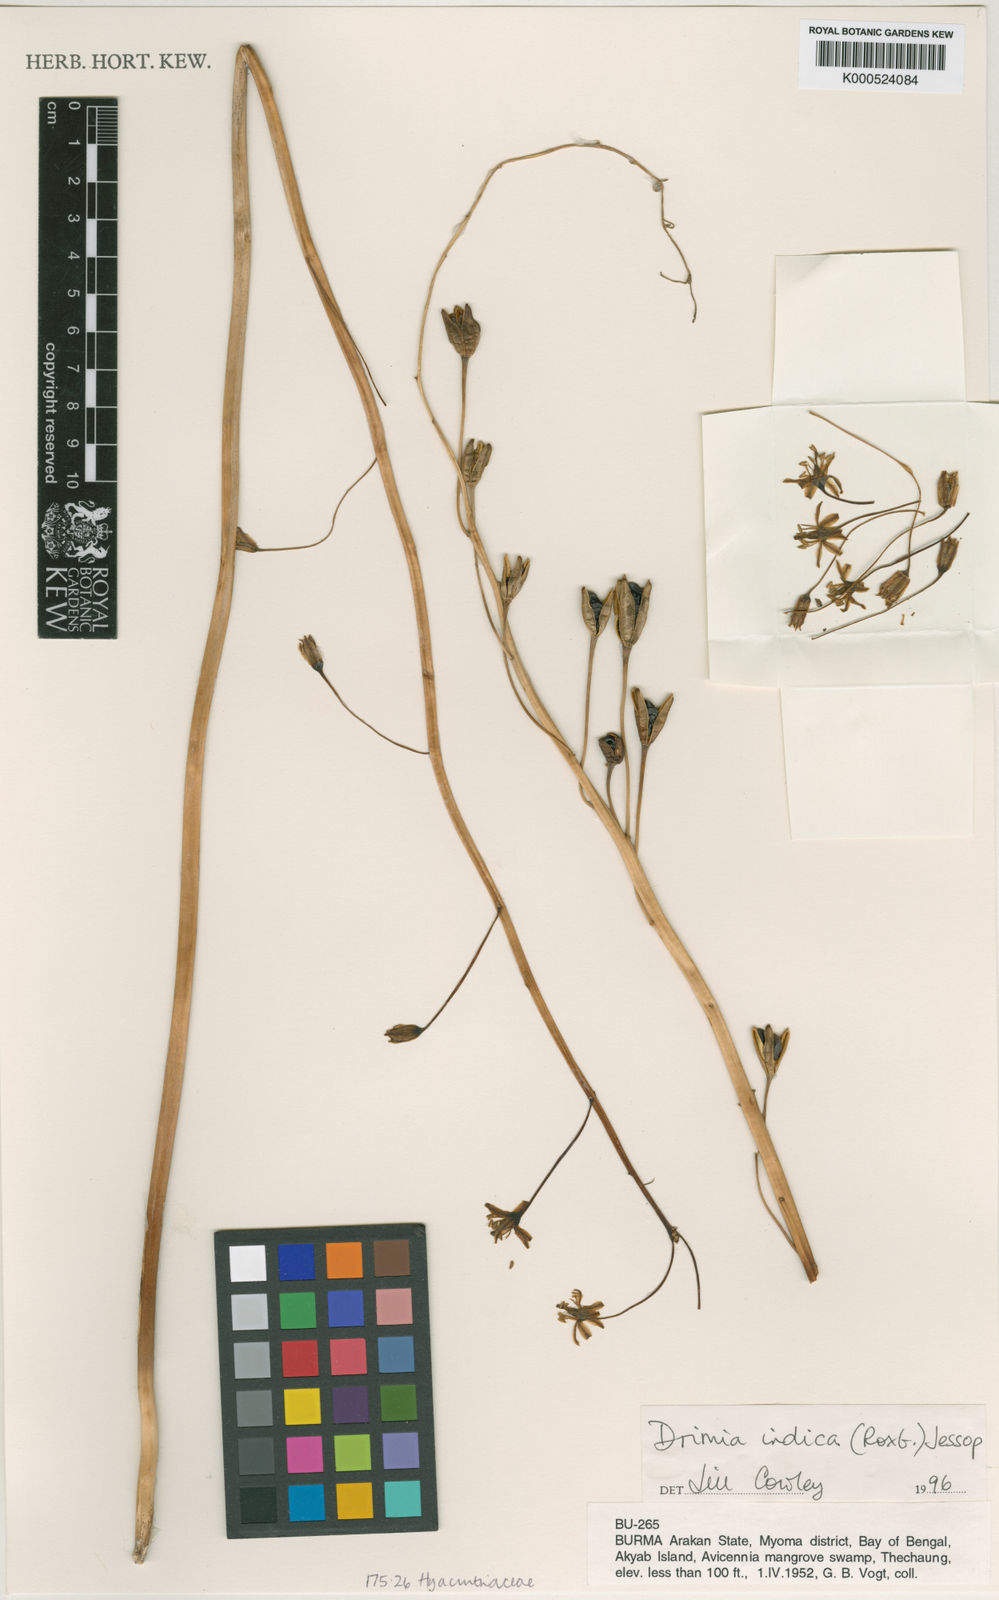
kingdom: Plantae
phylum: Tracheophyta
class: Liliopsida
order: Asparagales
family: Asparagaceae
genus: Drimia
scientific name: Drimia indica
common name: Indian-squill
